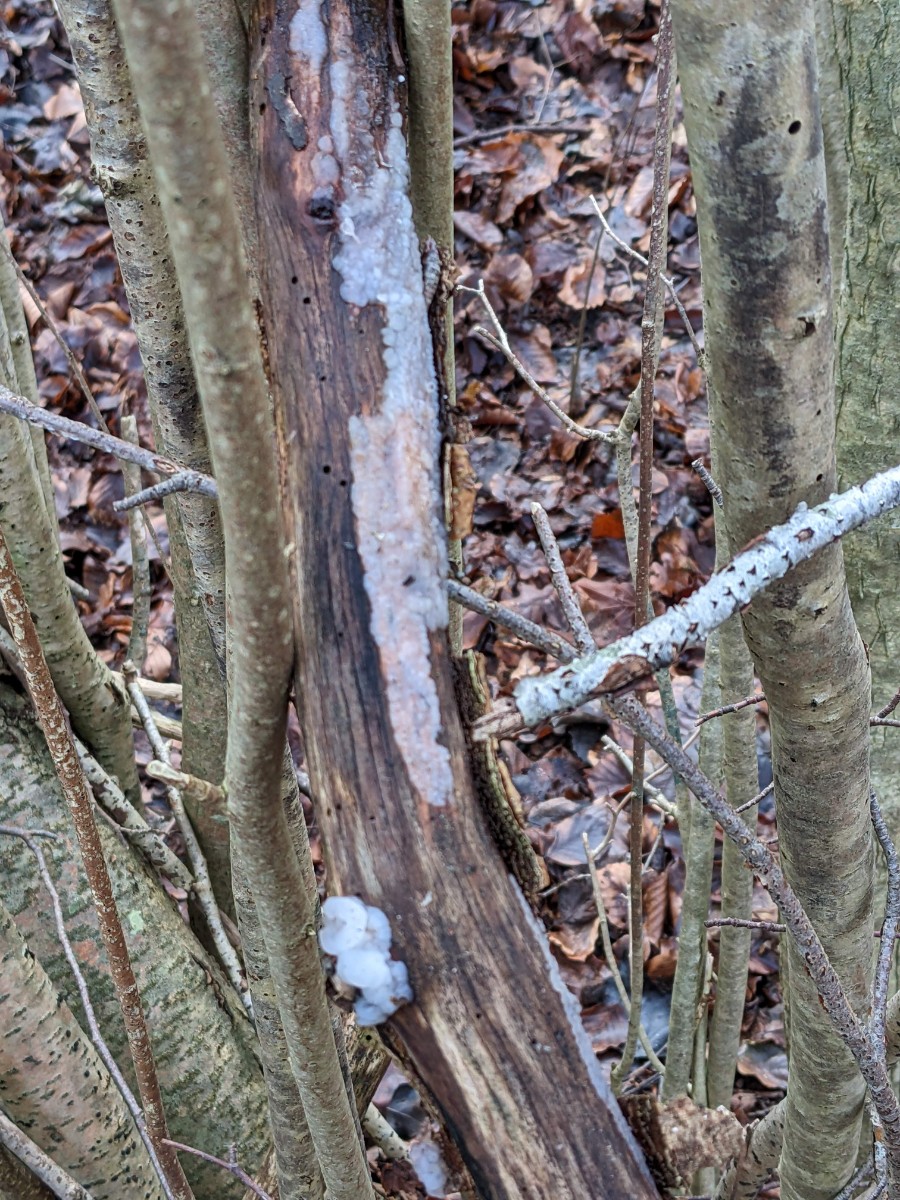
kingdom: Fungi
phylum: Basidiomycota
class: Agaricomycetes
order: Auriculariales
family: Auriculariaceae
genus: Exidia
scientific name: Exidia thuretiana
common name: hvidlig bævretop
